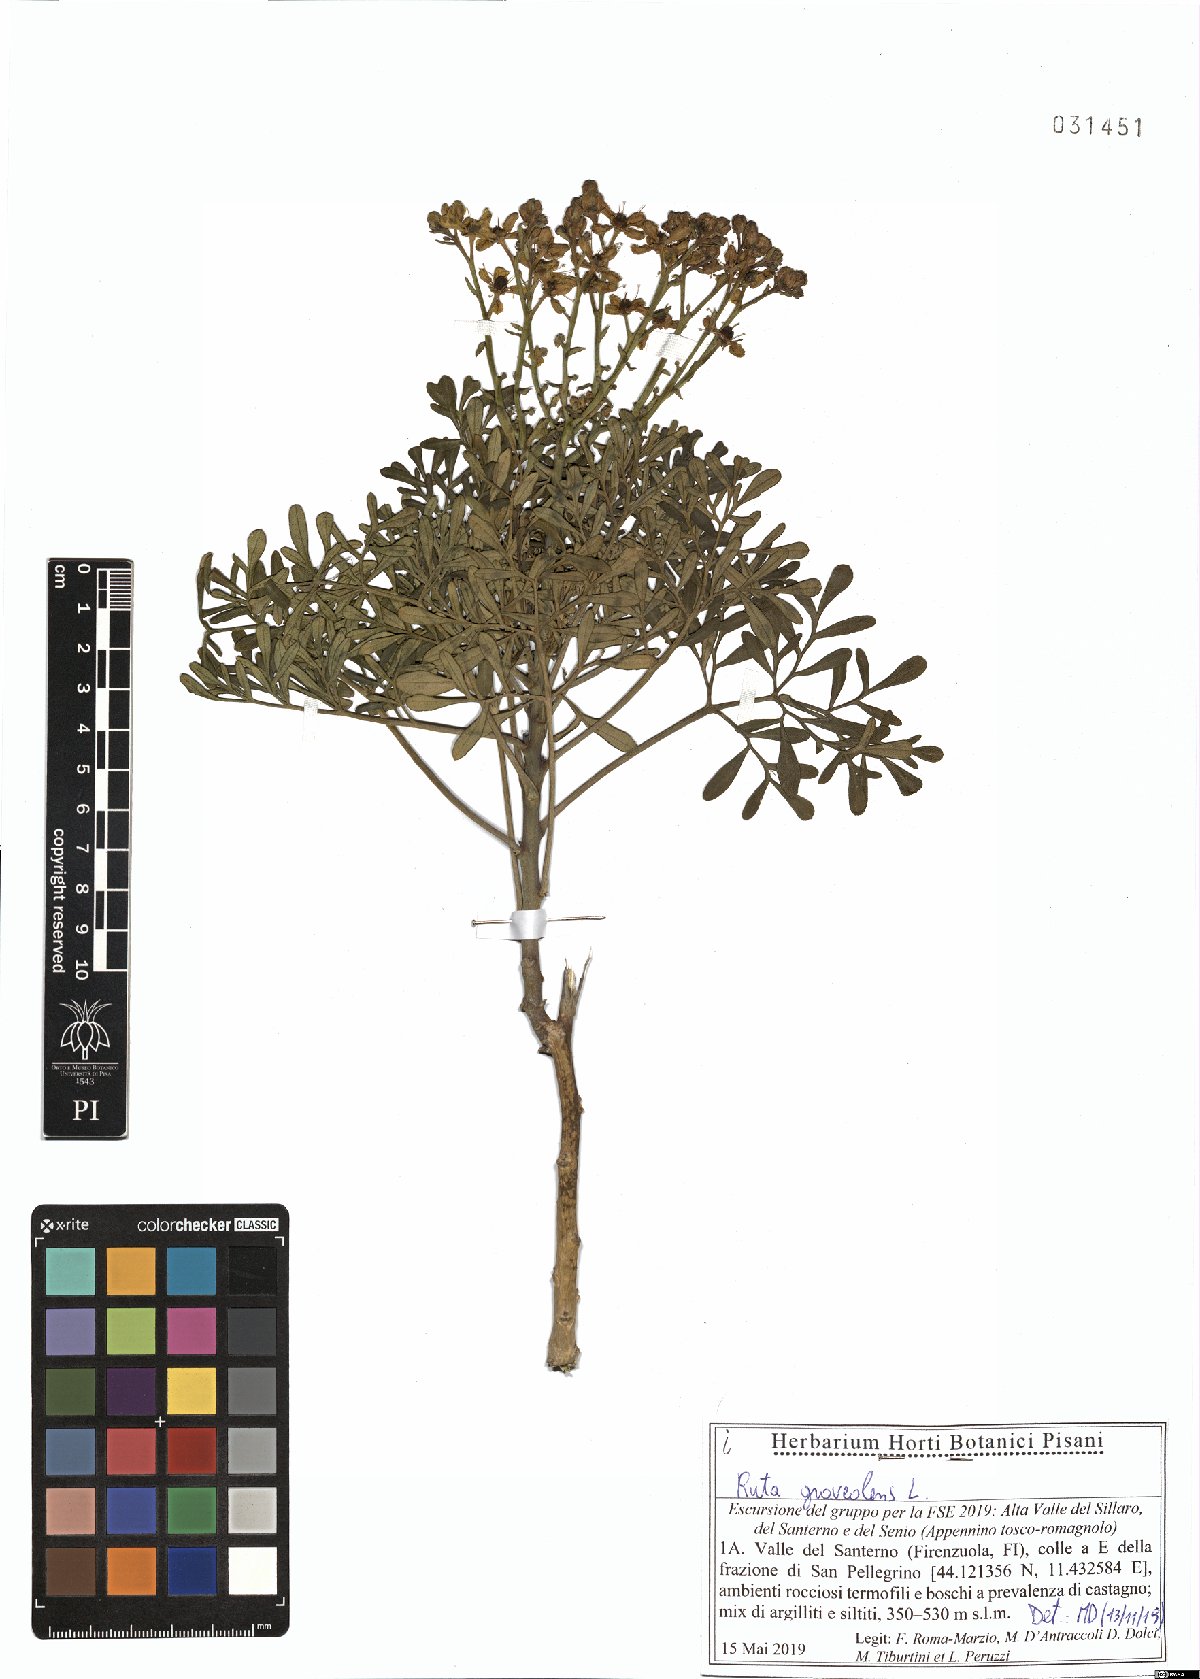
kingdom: Plantae
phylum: Tracheophyta
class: Magnoliopsida
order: Sapindales
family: Rutaceae
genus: Ruta
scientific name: Ruta graveolens
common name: Common rue
